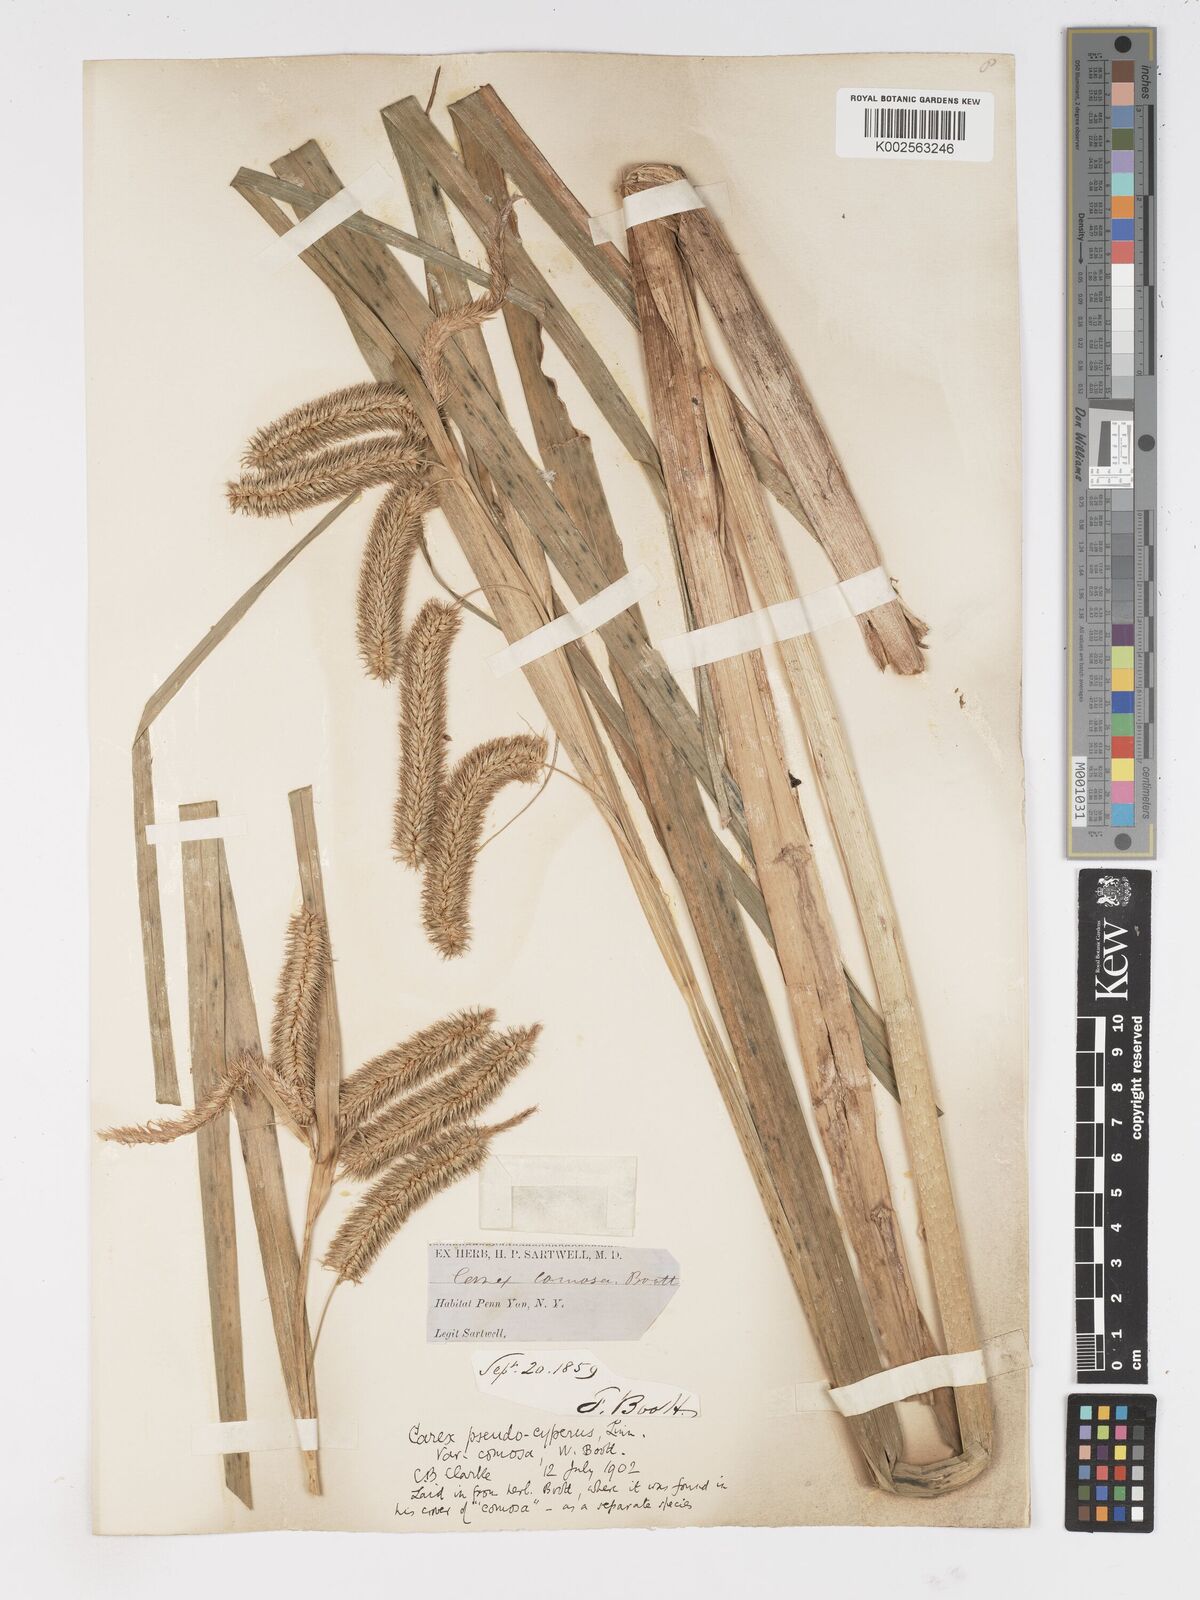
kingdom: Plantae
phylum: Tracheophyta
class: Liliopsida
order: Poales
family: Cyperaceae
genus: Carex
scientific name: Carex comosa
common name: Bristly sedge
